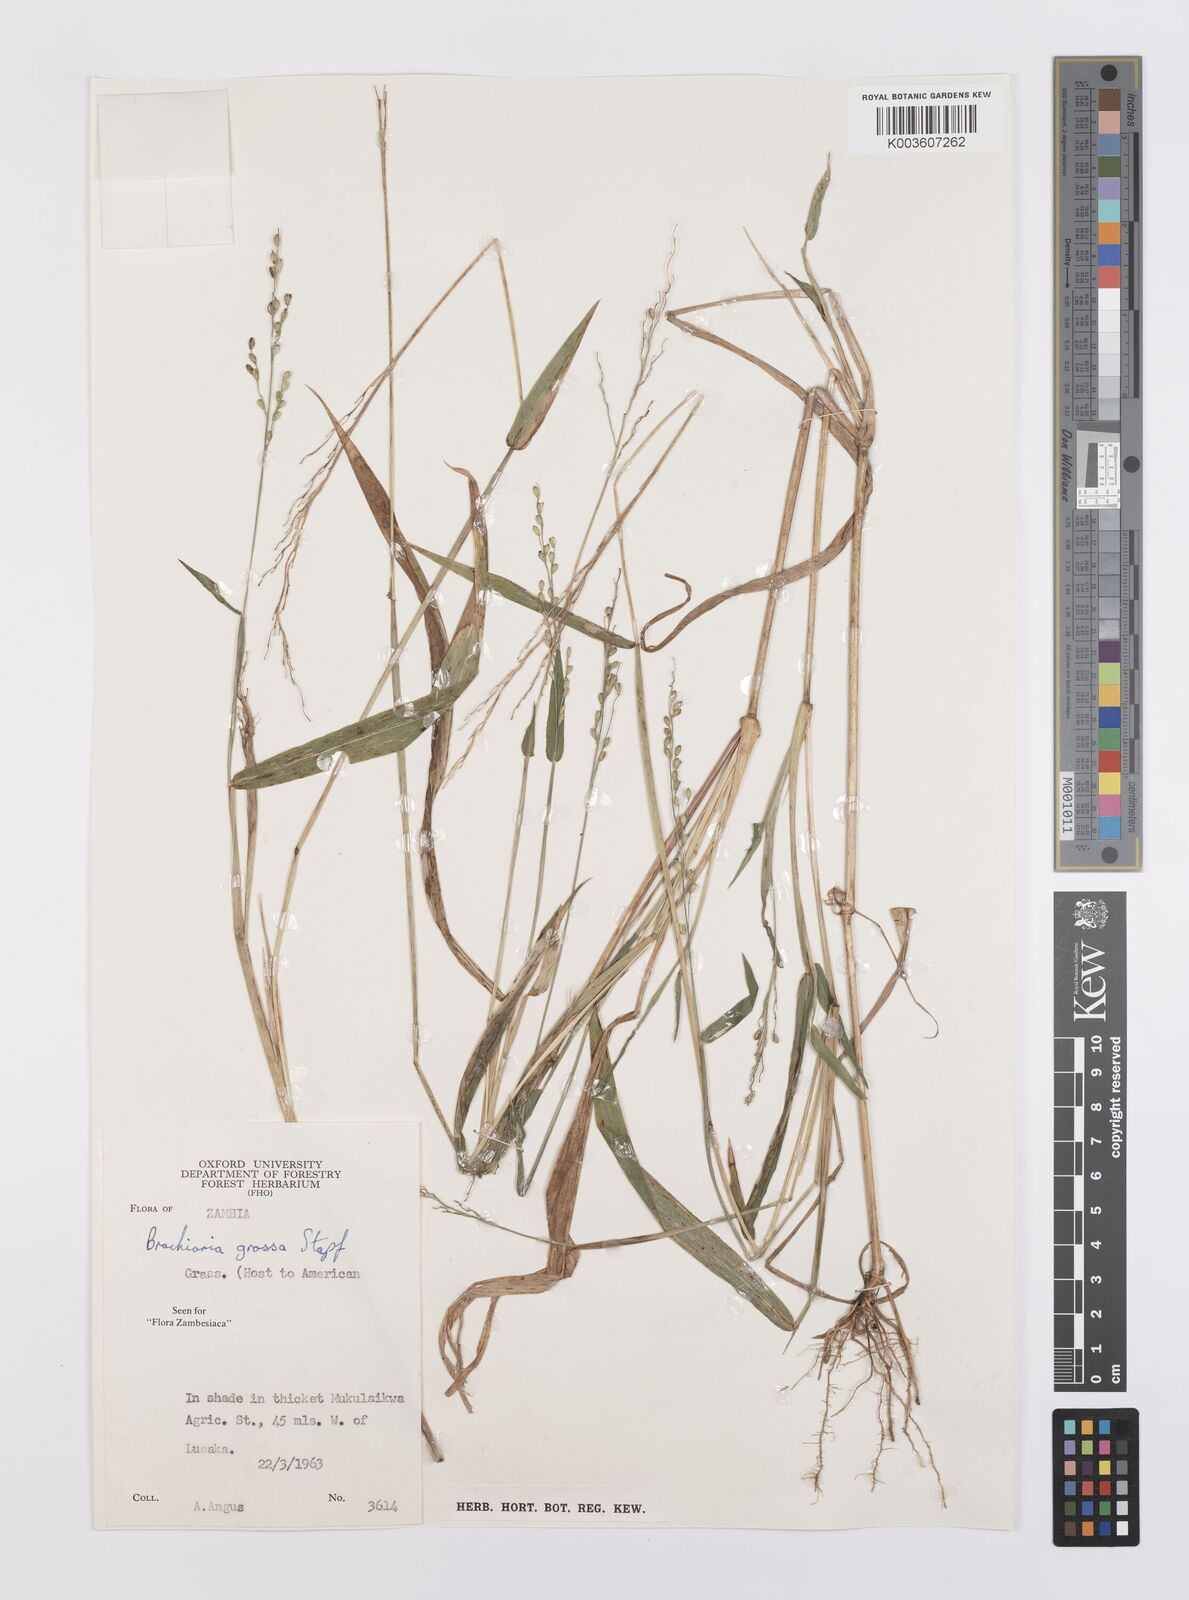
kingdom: Plantae
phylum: Tracheophyta
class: Liliopsida
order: Poales
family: Poaceae
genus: Urochloa
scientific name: Urochloa Brachiaria grossa
